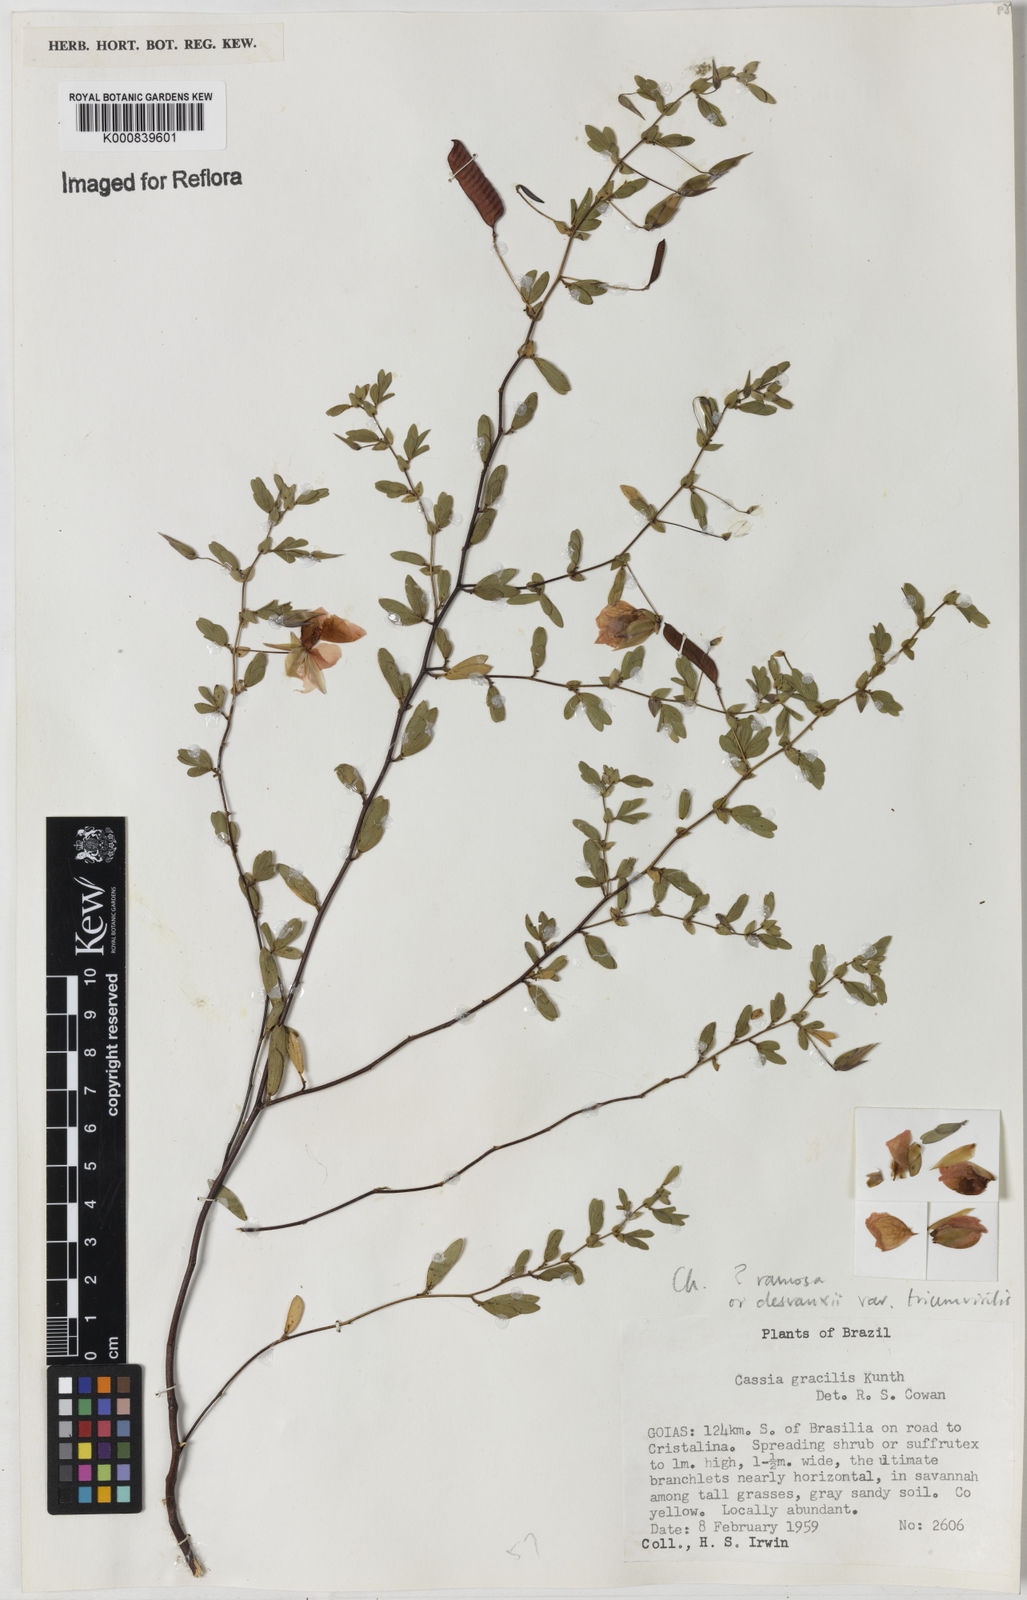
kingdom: Plantae
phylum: Tracheophyta
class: Magnoliopsida
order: Fabales
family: Fabaceae
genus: Chamaecrista
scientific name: Chamaecrista ramosa
